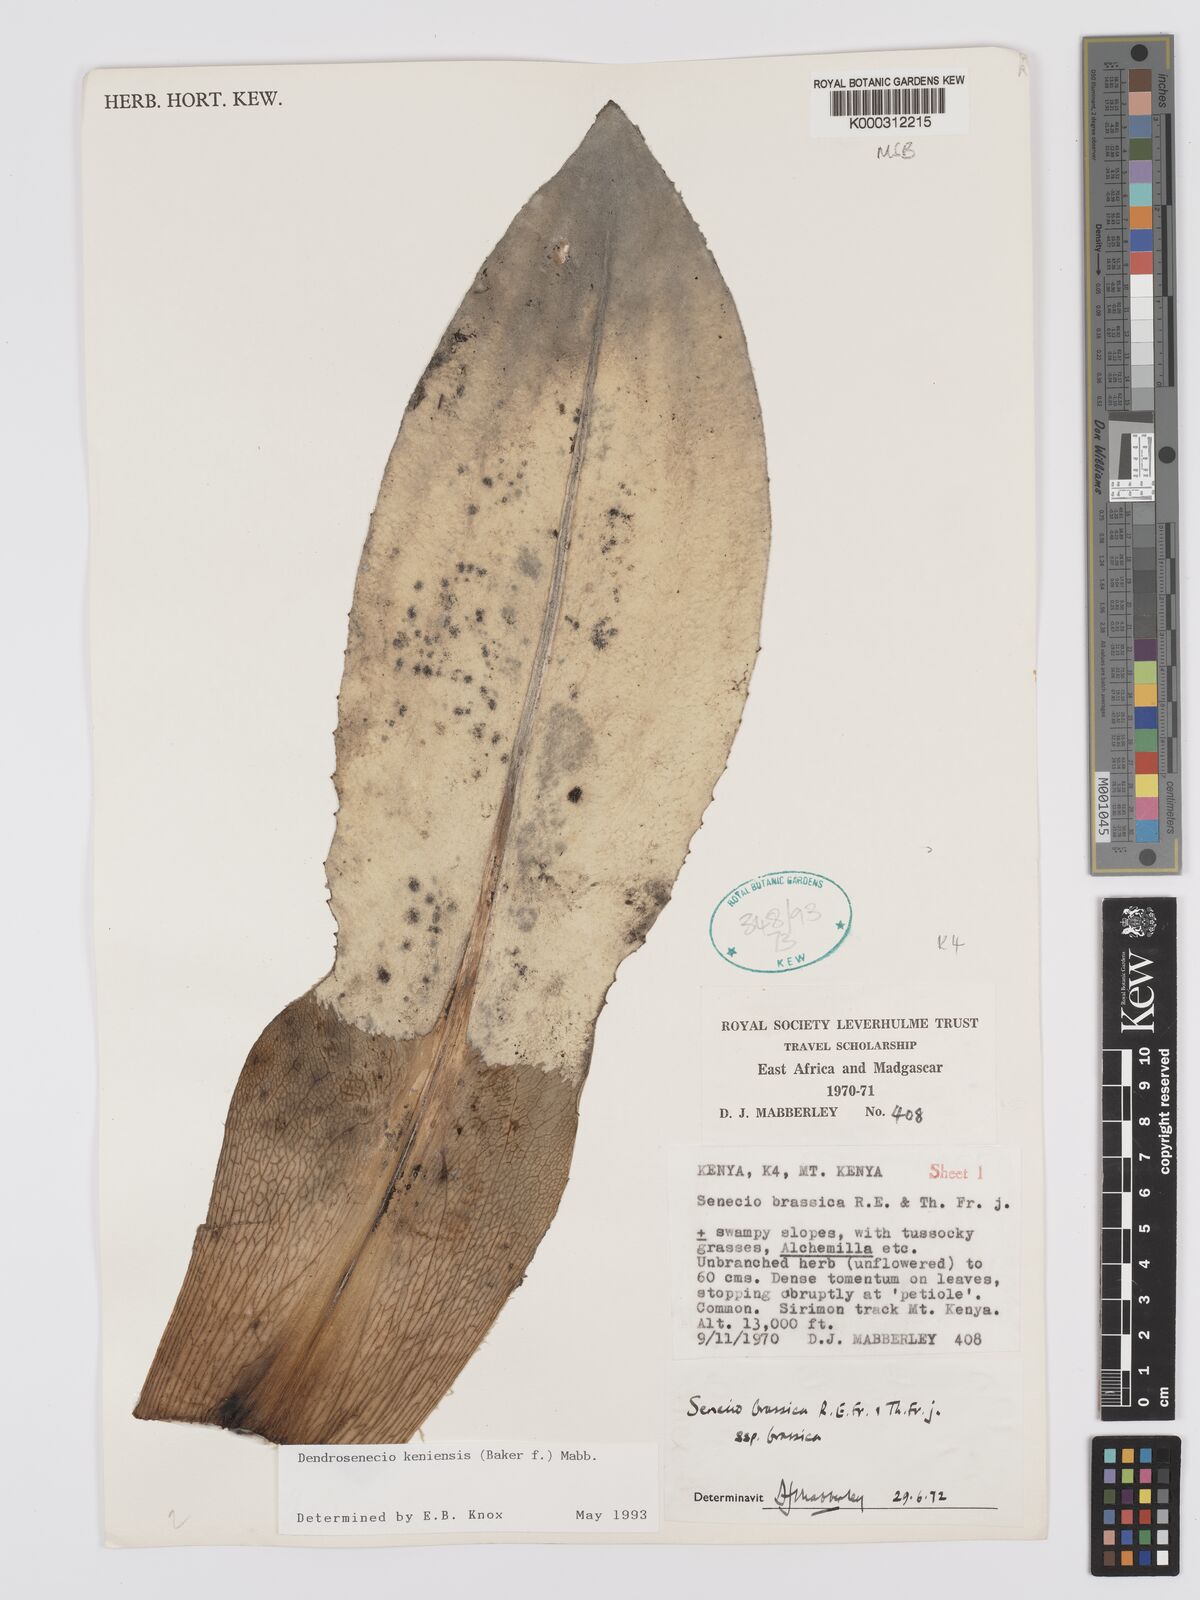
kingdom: Plantae
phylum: Tracheophyta
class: Magnoliopsida
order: Asterales
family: Asteraceae
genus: Dendrosenecio
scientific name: Dendrosenecio keniensis
